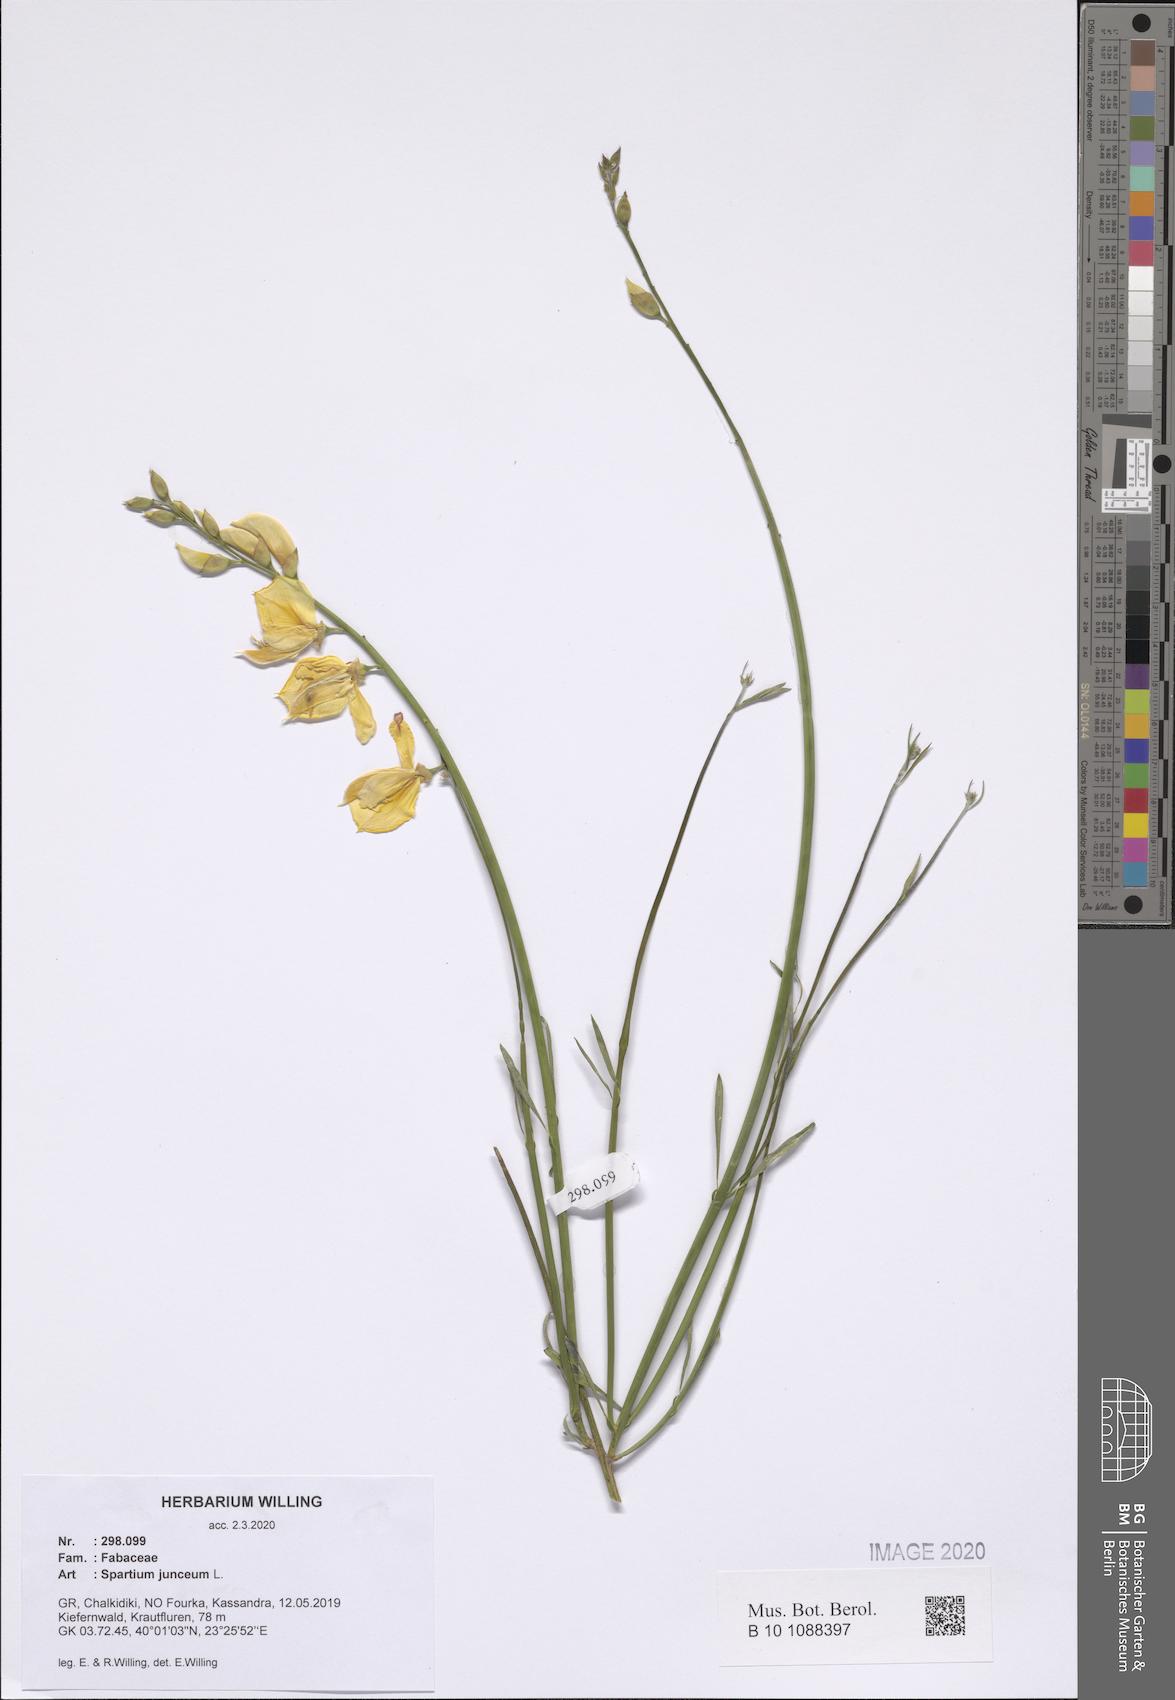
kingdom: Plantae
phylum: Tracheophyta
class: Magnoliopsida
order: Fabales
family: Fabaceae
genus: Spartium
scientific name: Spartium junceum
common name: Spanish broom
